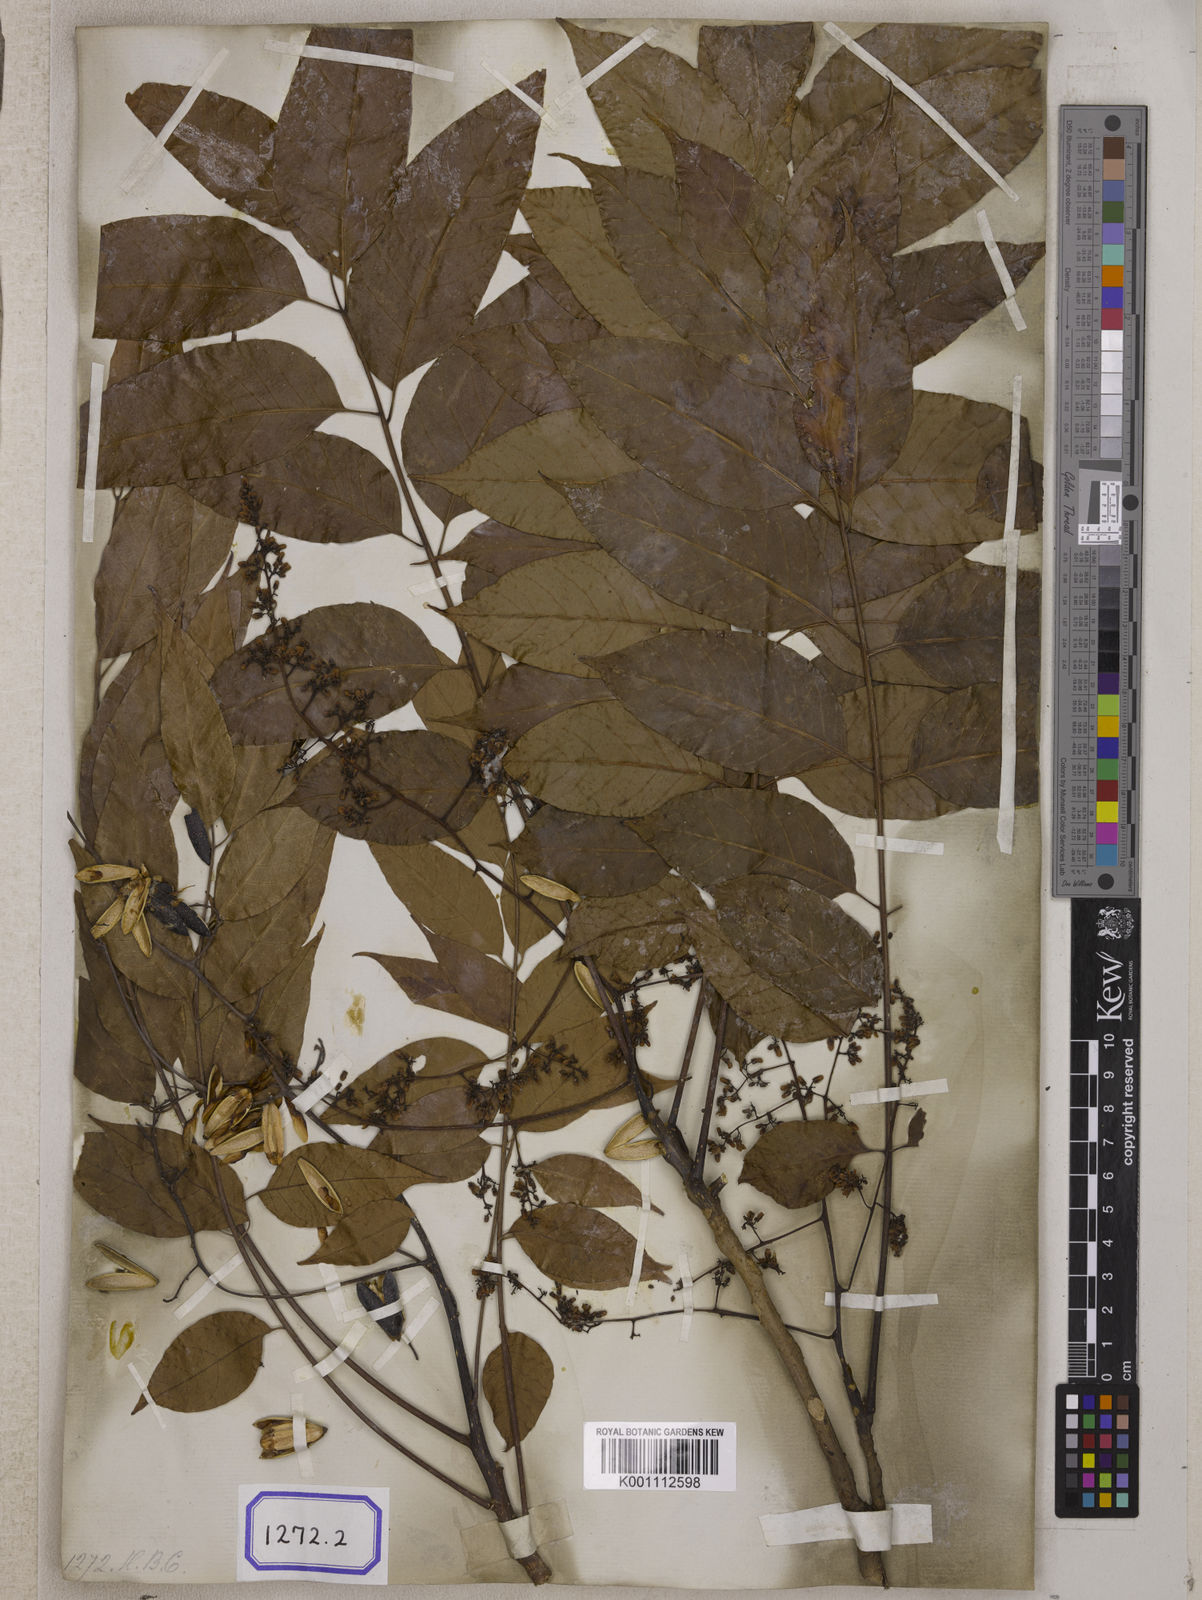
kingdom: Plantae
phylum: Tracheophyta
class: Magnoliopsida
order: Sapindales
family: Meliaceae
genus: Cedrela
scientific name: Cedrela
